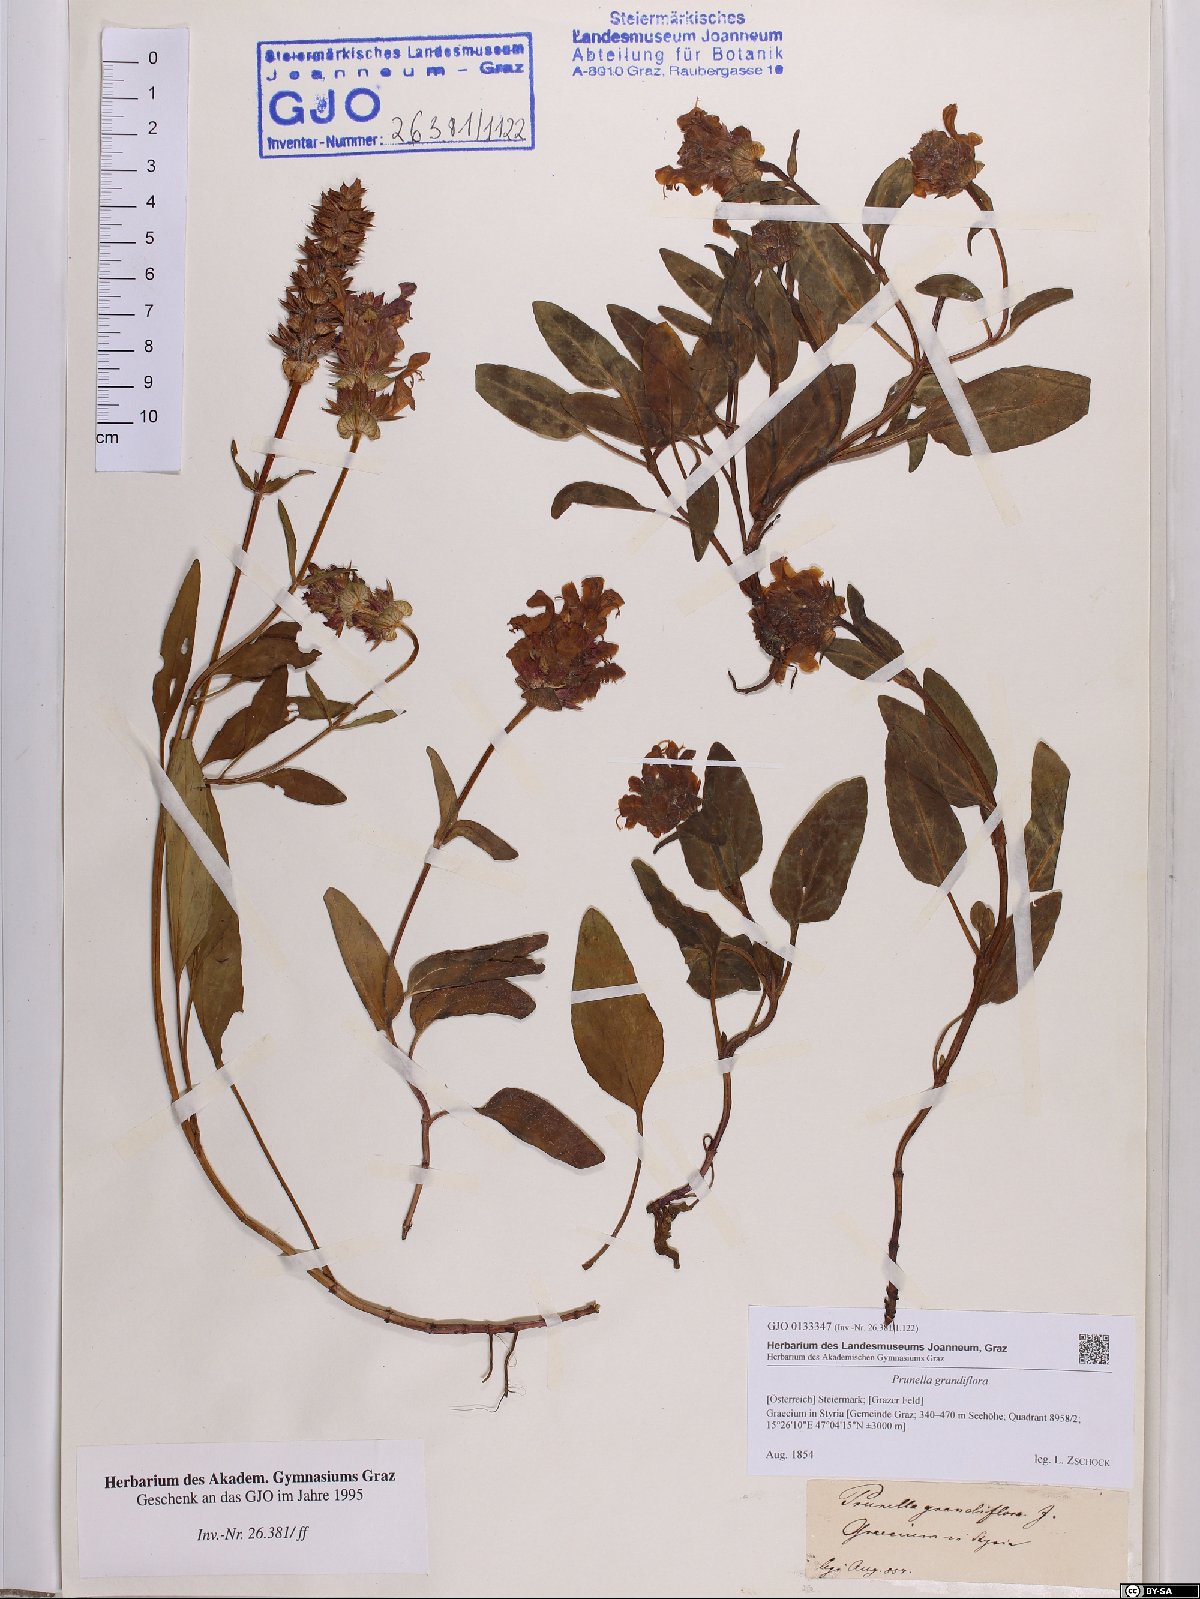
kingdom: Plantae
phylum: Tracheophyta
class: Magnoliopsida
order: Lamiales
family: Lamiaceae
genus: Prunella
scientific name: Prunella grandiflora
